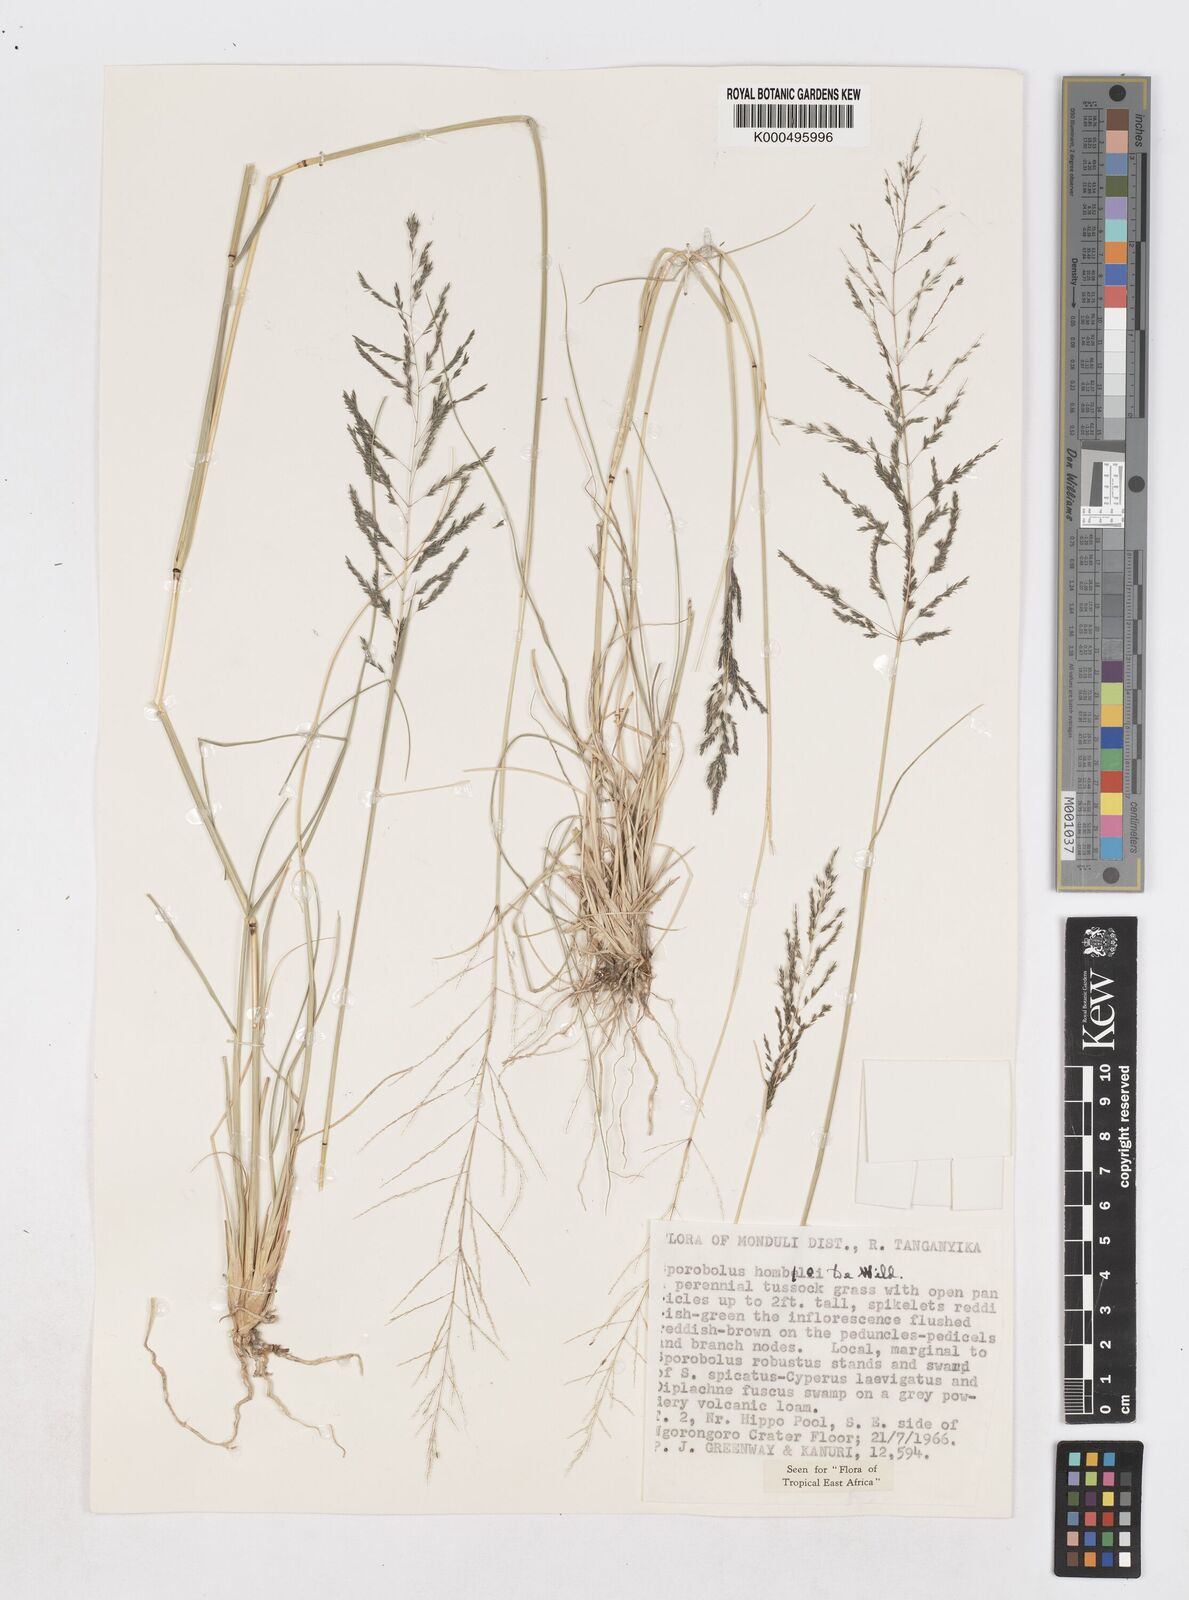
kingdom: Plantae
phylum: Tracheophyta
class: Liliopsida
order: Poales
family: Poaceae
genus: Sporobolus
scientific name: Sporobolus ioclados
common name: Pan dropseed
